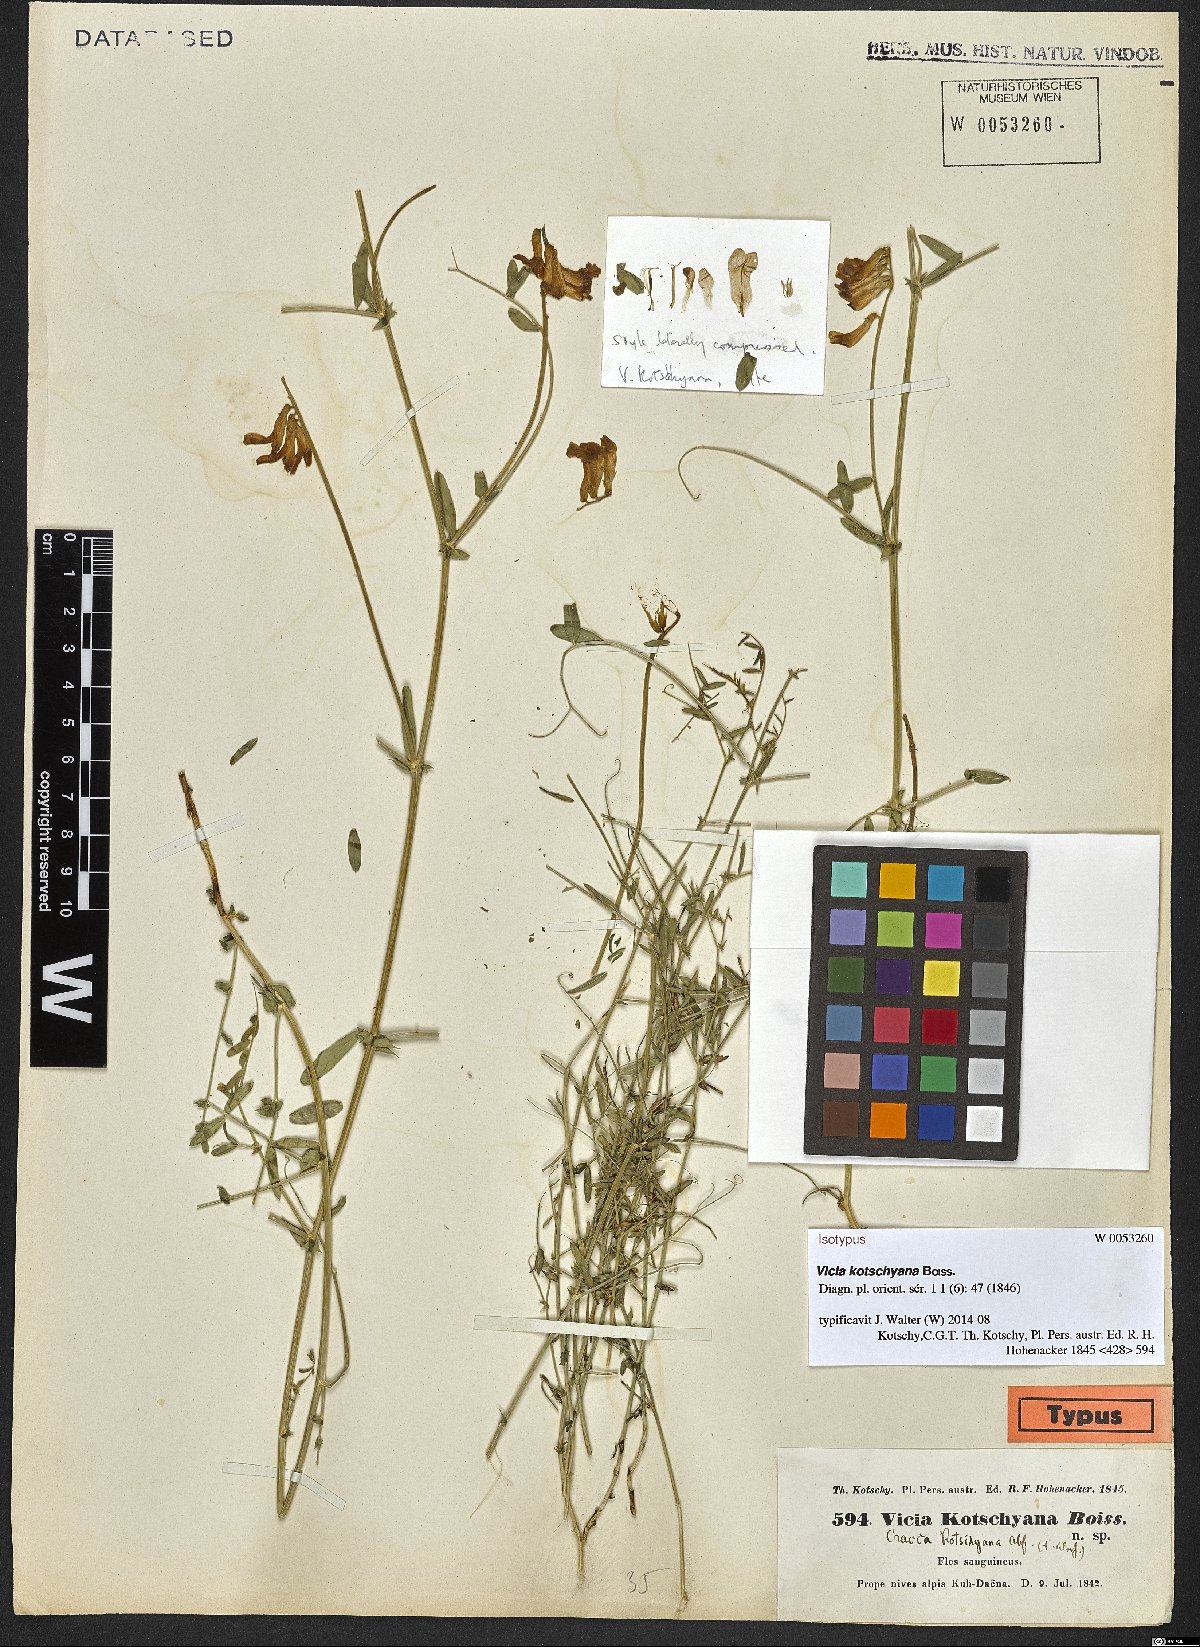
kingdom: Plantae
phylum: Tracheophyta
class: Magnoliopsida
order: Fabales
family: Fabaceae
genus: Vicia
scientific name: Vicia kotschyana
